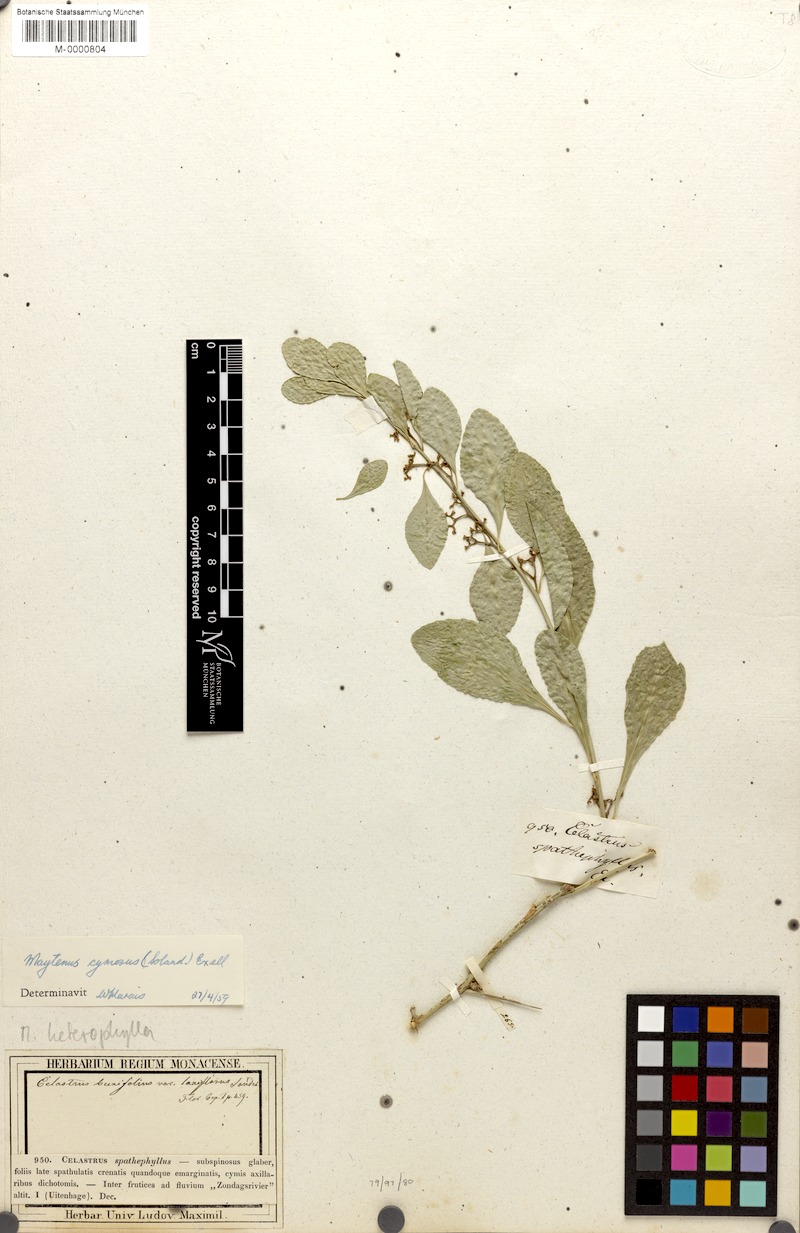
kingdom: Plantae
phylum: Tracheophyta
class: Magnoliopsida
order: Celastrales
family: Celastraceae
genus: Gymnosporia
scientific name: Gymnosporia buxifolia
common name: Common spike-thorn
